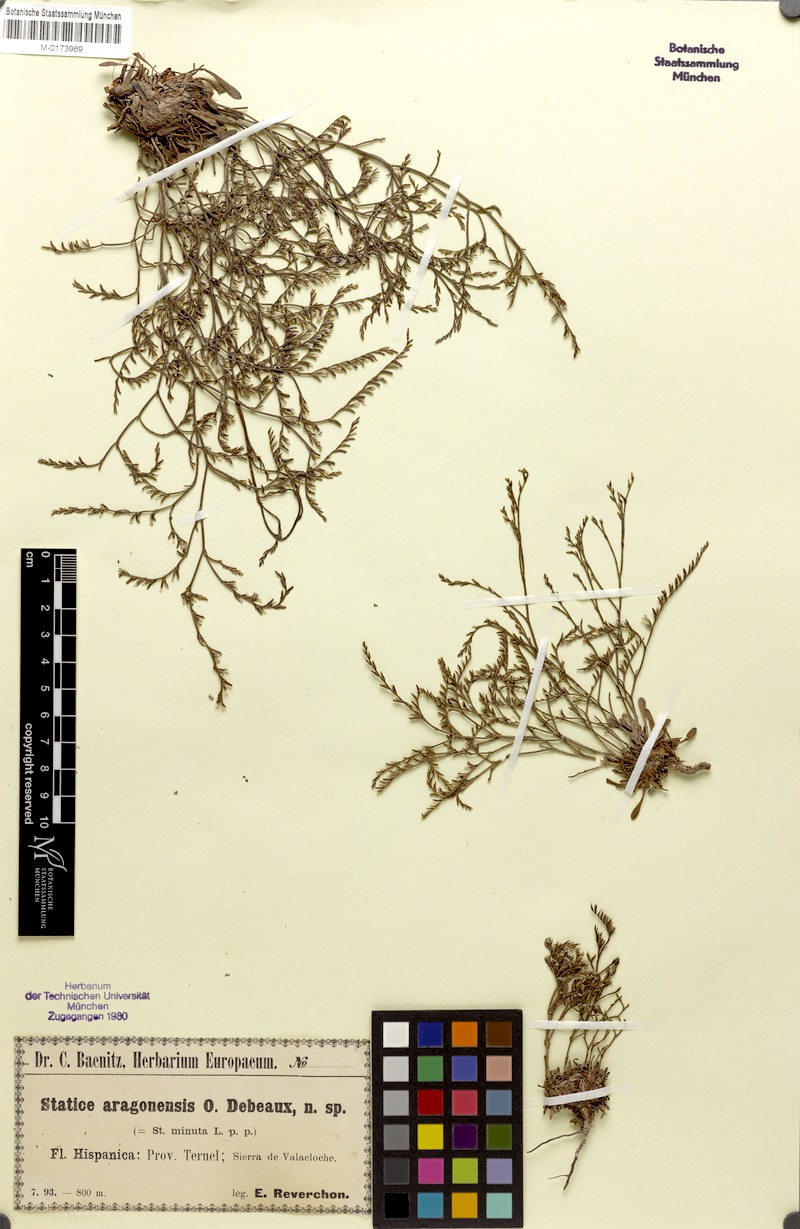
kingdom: Plantae
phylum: Tracheophyta
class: Magnoliopsida
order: Caryophyllales
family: Plumbaginaceae
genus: Limonium
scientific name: Limonium aragonense
